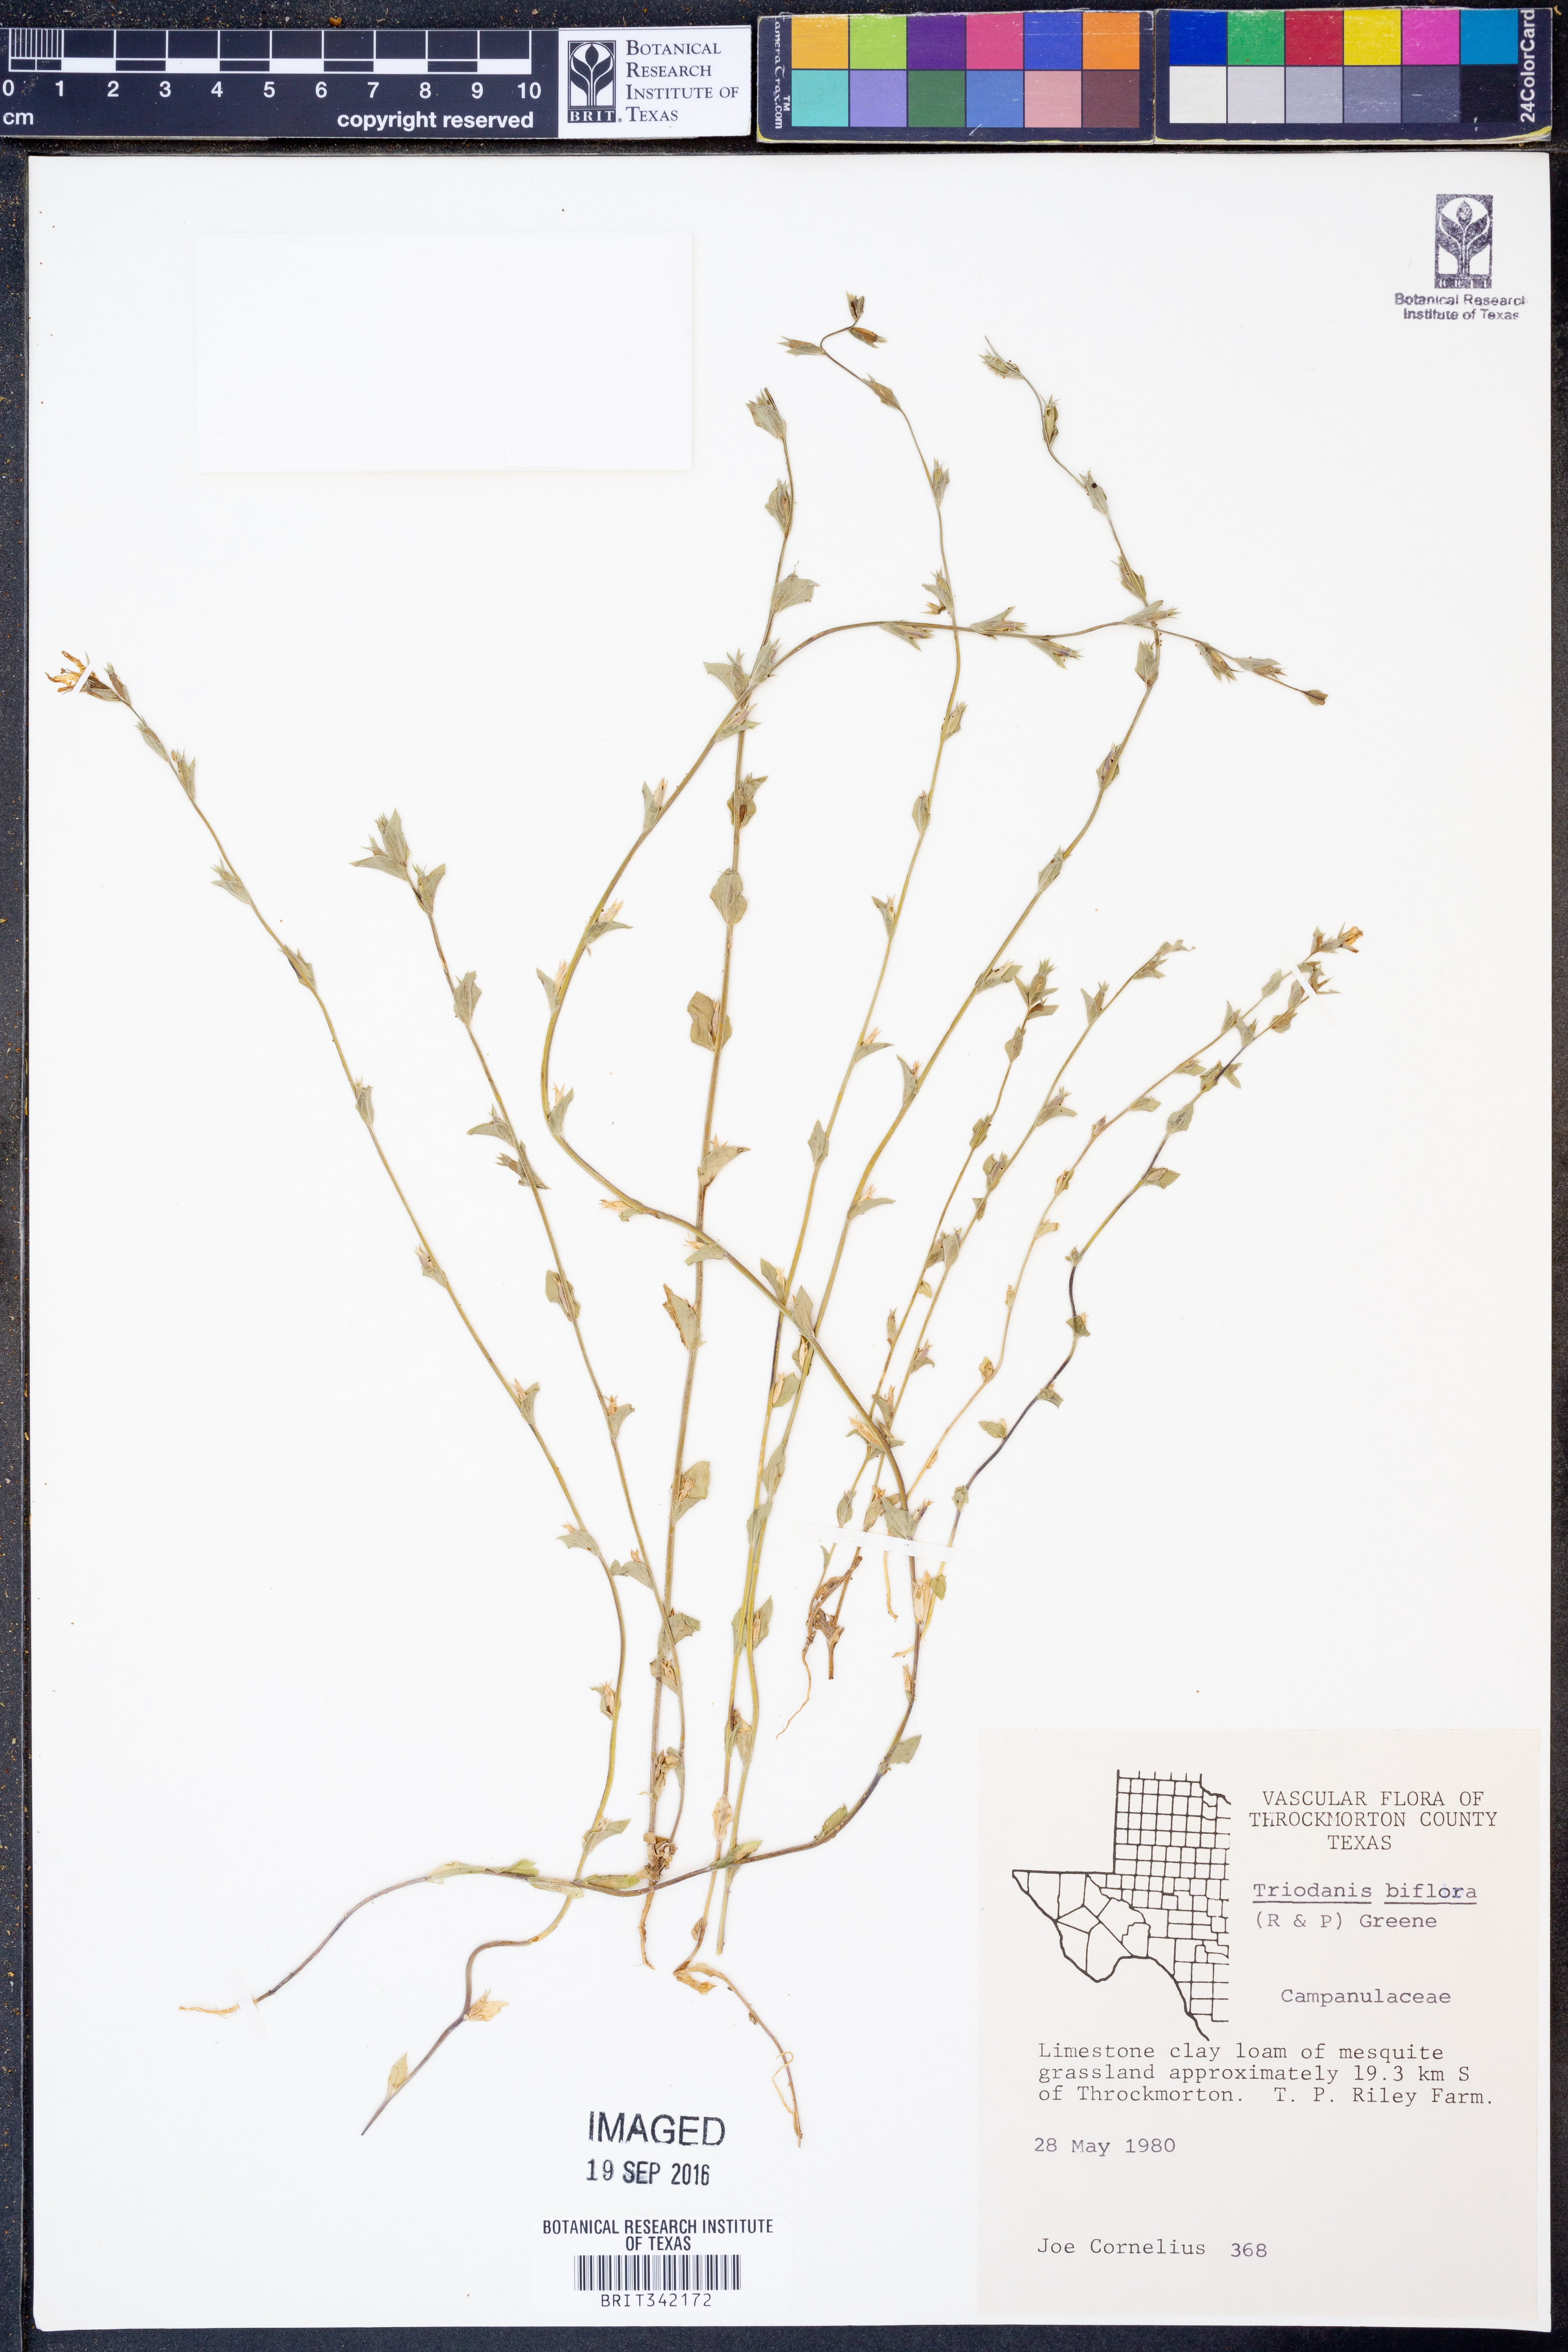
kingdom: Plantae
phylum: Tracheophyta
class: Magnoliopsida
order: Asterales
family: Campanulaceae
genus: Triodanis
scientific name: Triodanis perfoliata
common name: Clasping venus' looking-glass
